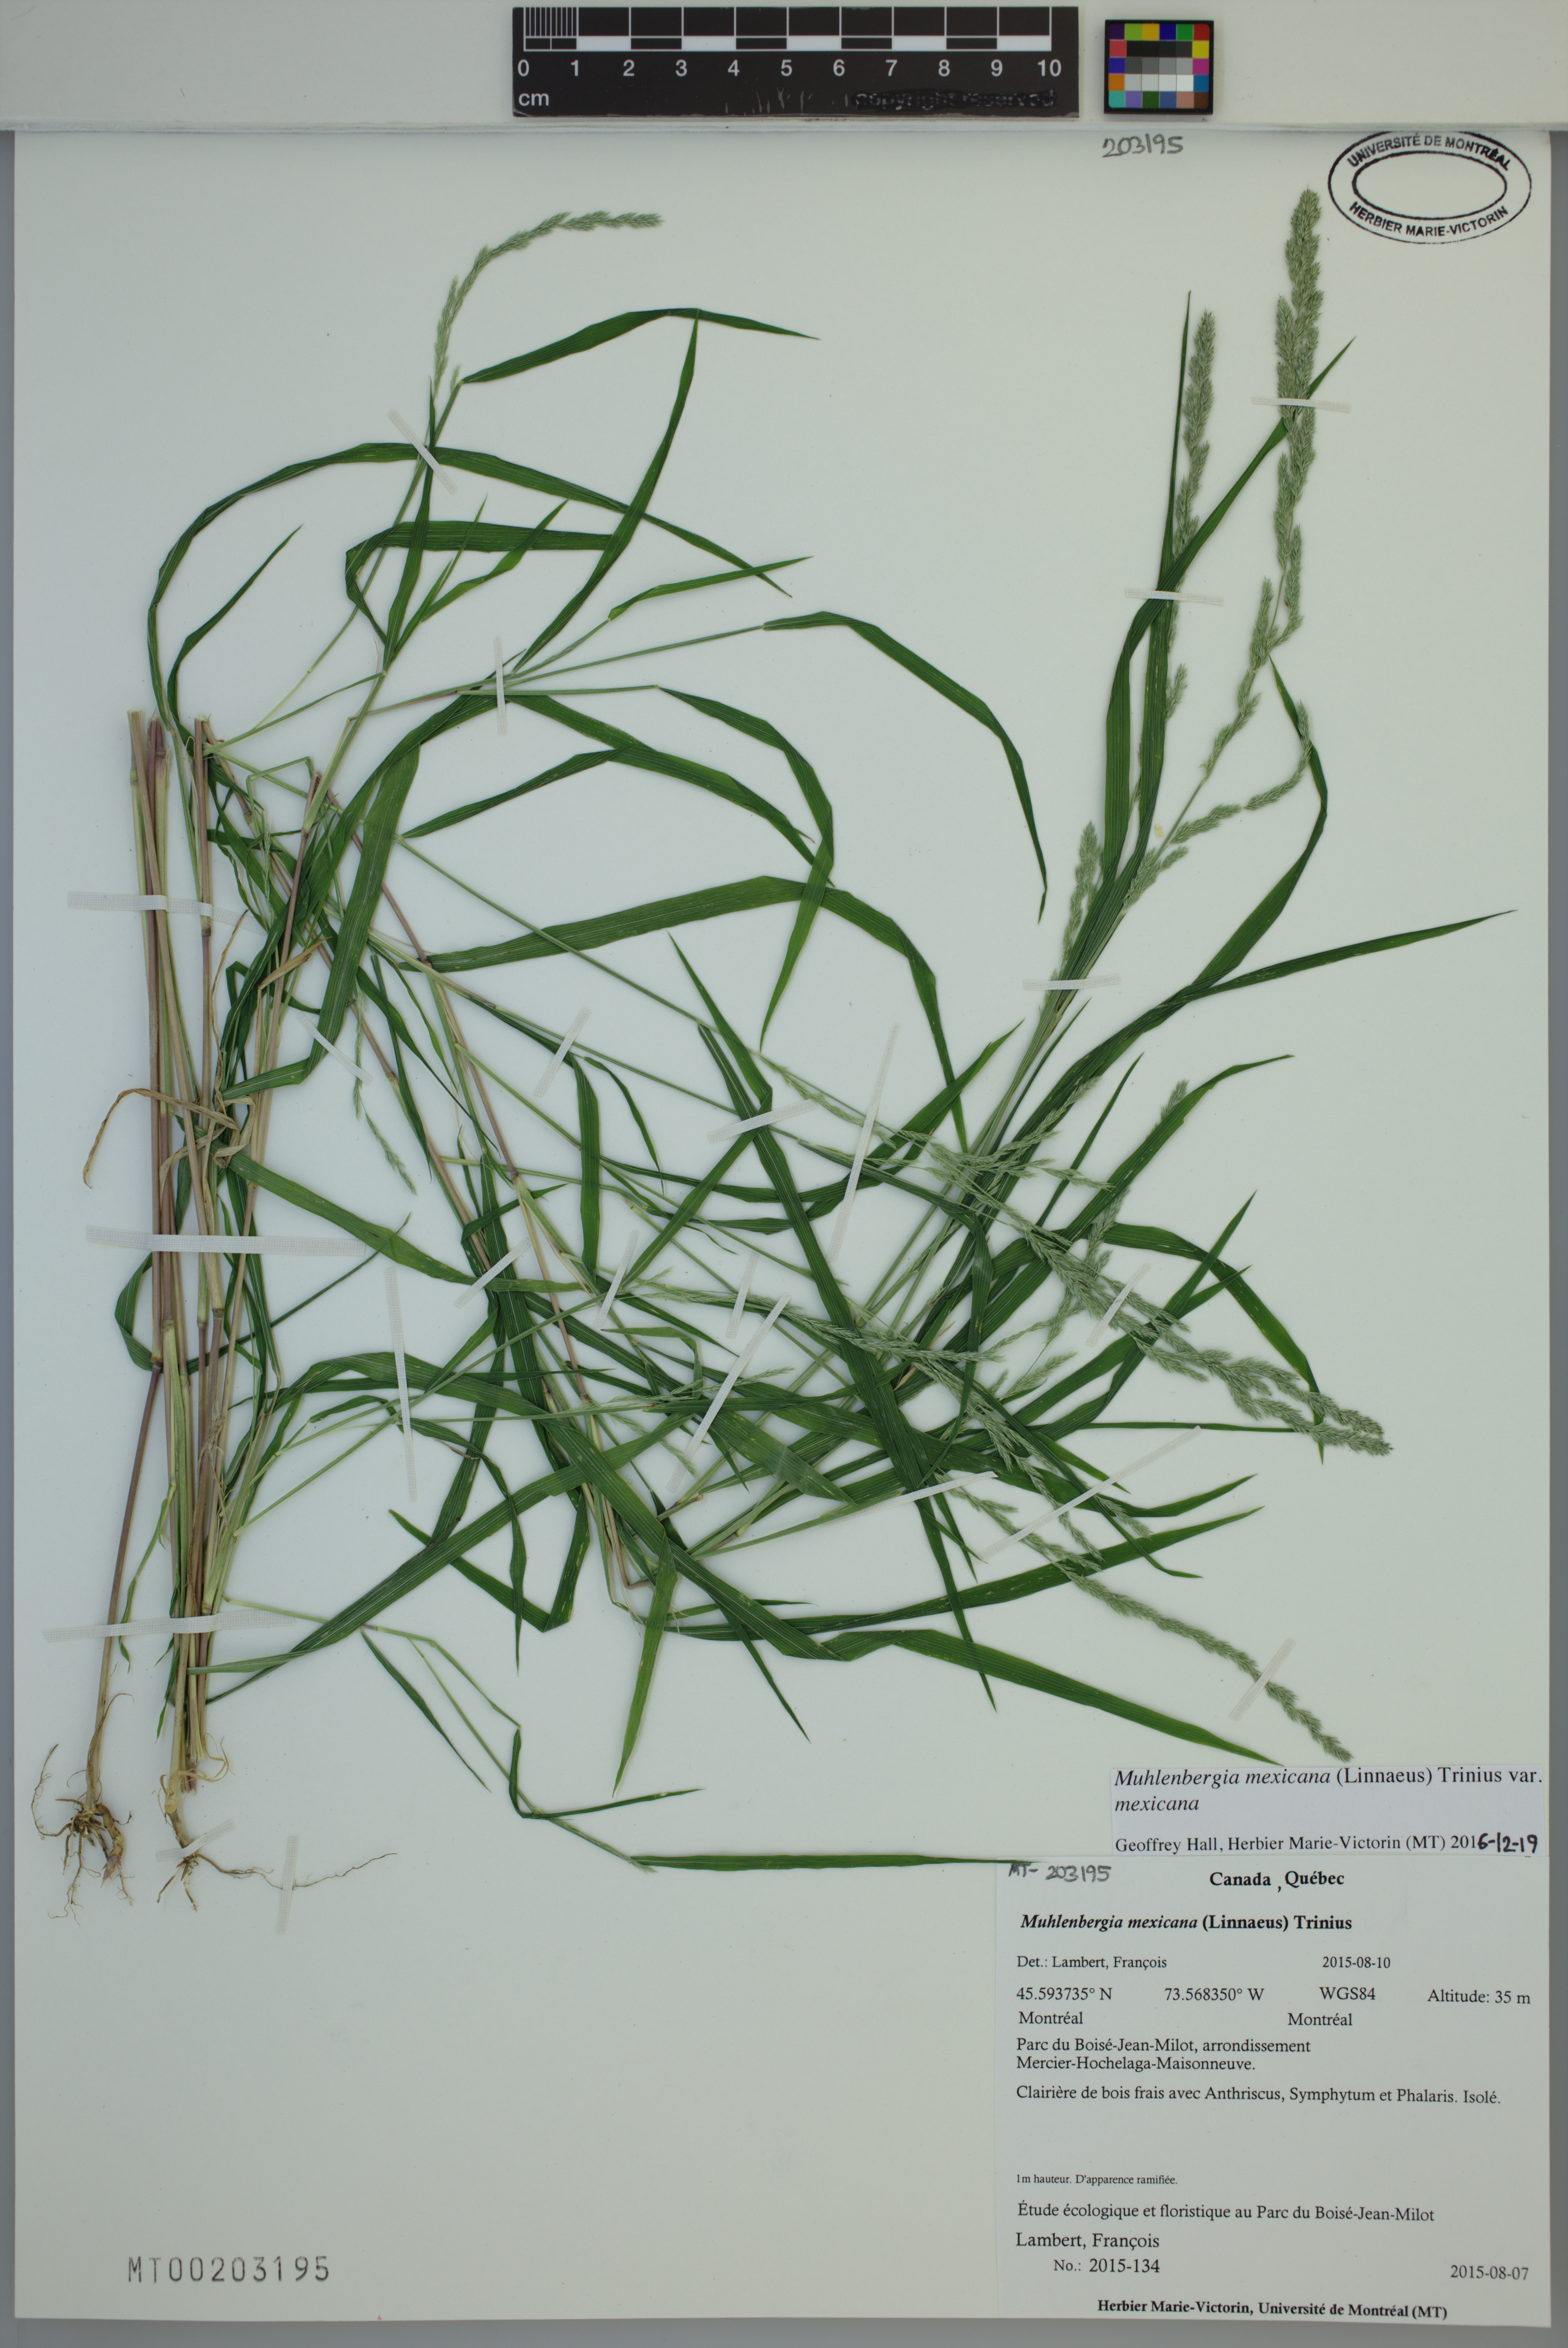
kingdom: Plantae
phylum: Tracheophyta
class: Liliopsida
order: Poales
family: Poaceae
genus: Muhlenbergia
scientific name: Muhlenbergia mexicana
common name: Mexican muhly
